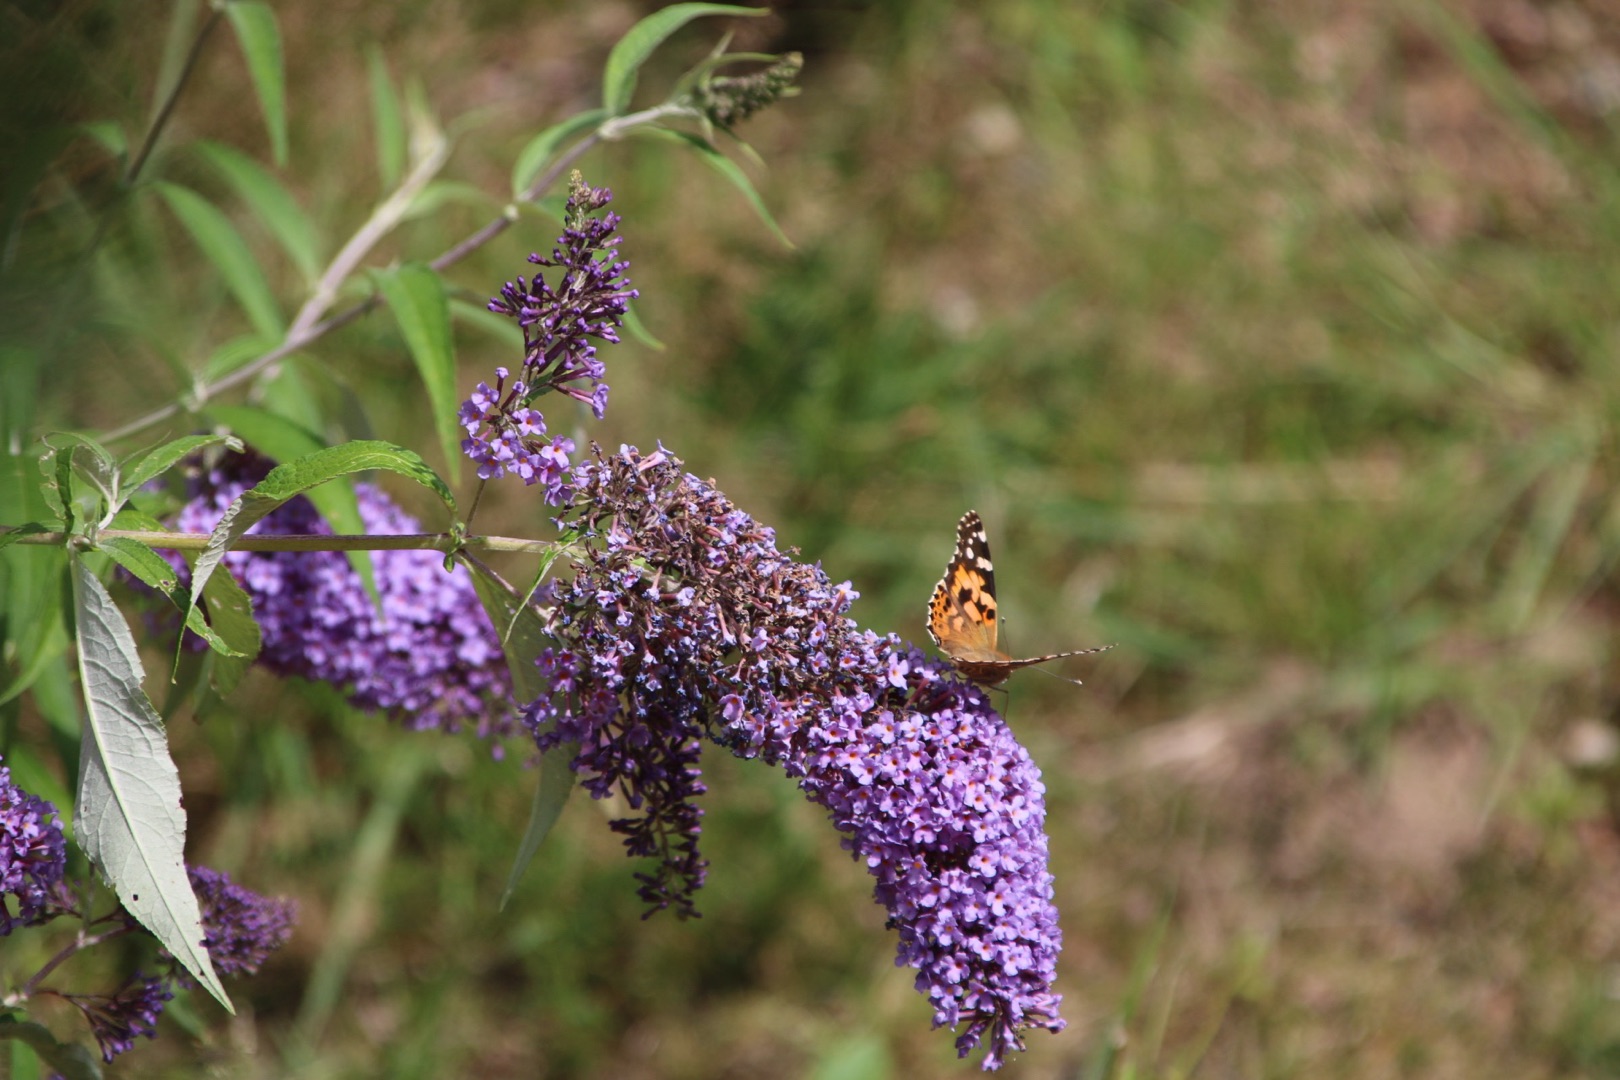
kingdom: Animalia
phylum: Arthropoda
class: Insecta
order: Lepidoptera
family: Nymphalidae
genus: Vanessa
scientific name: Vanessa cardui
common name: Tidselsommerfugl
